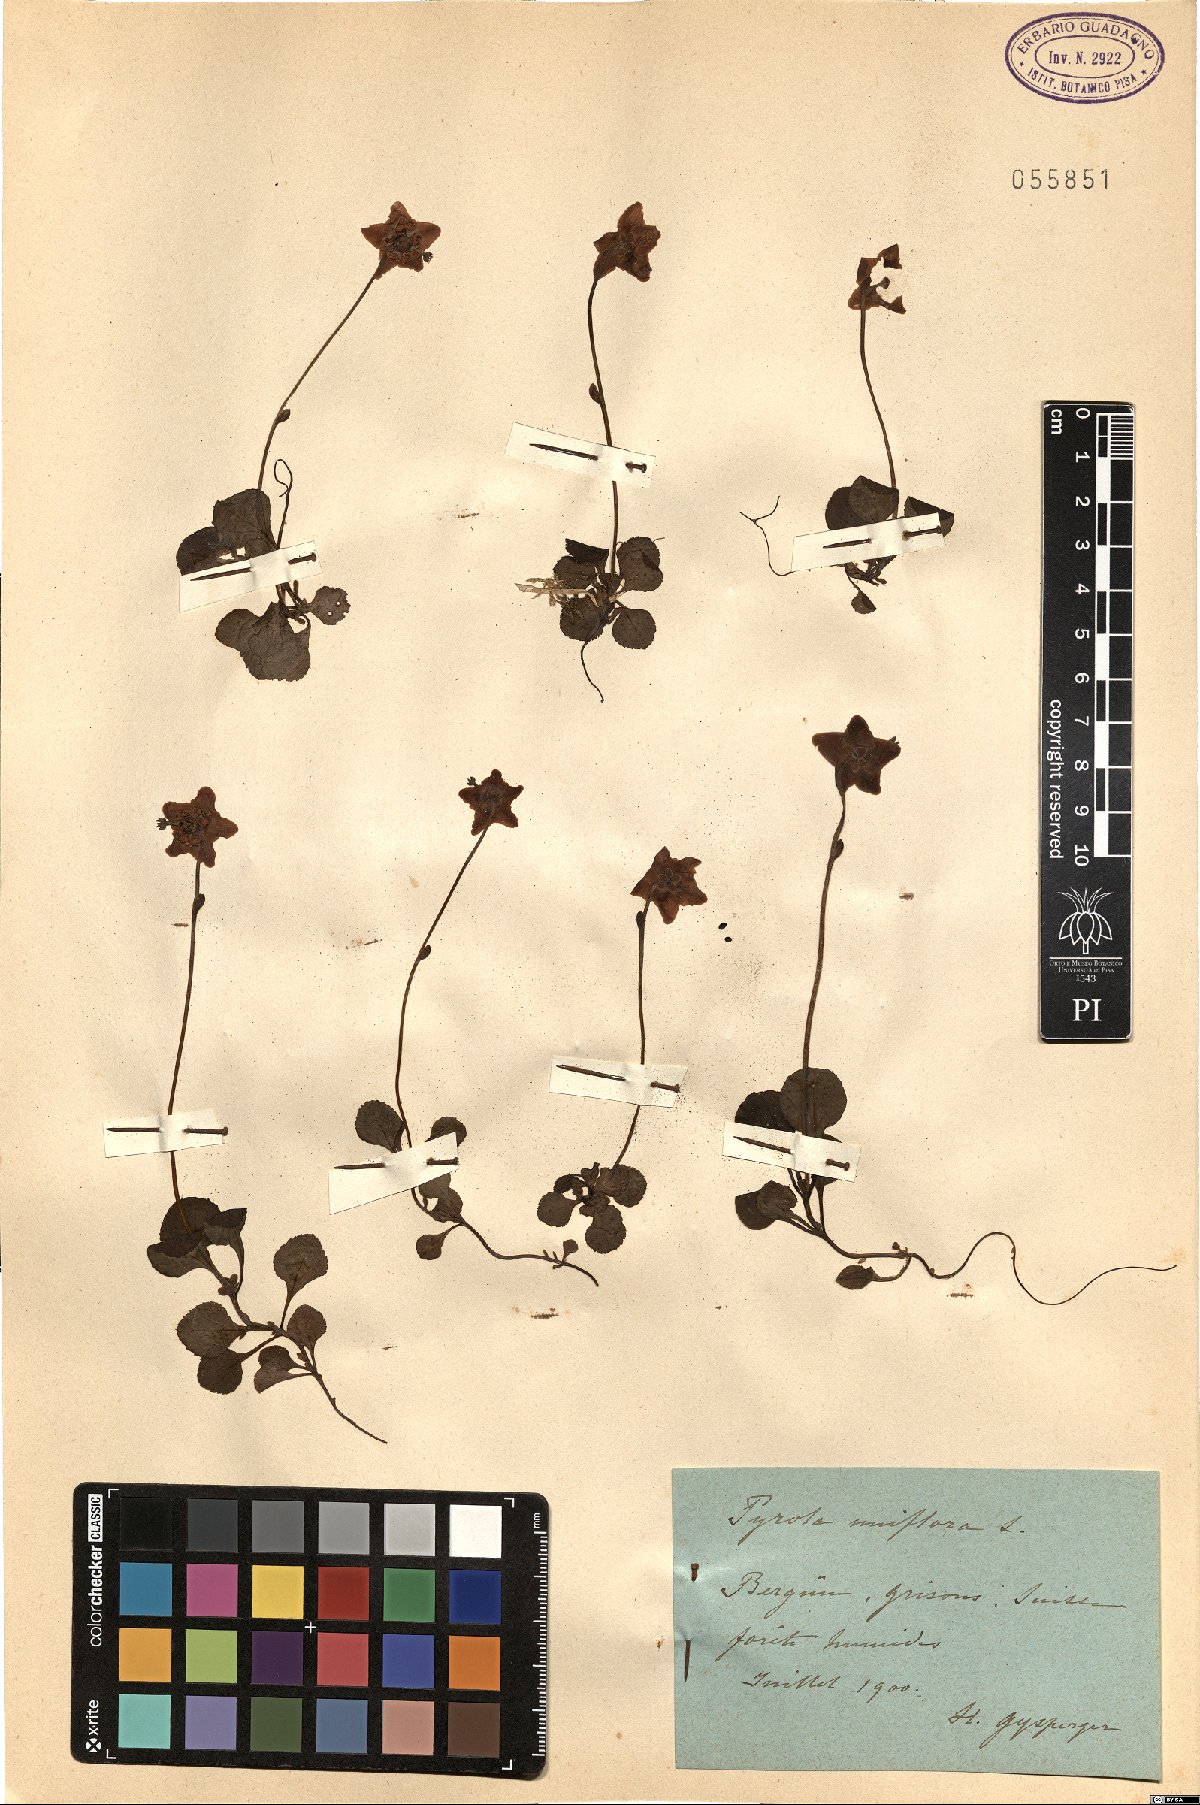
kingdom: Plantae
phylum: Tracheophyta
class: Magnoliopsida
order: Ericales
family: Ericaceae
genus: Moneses
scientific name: Moneses uniflora
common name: One-flowered wintergreen
